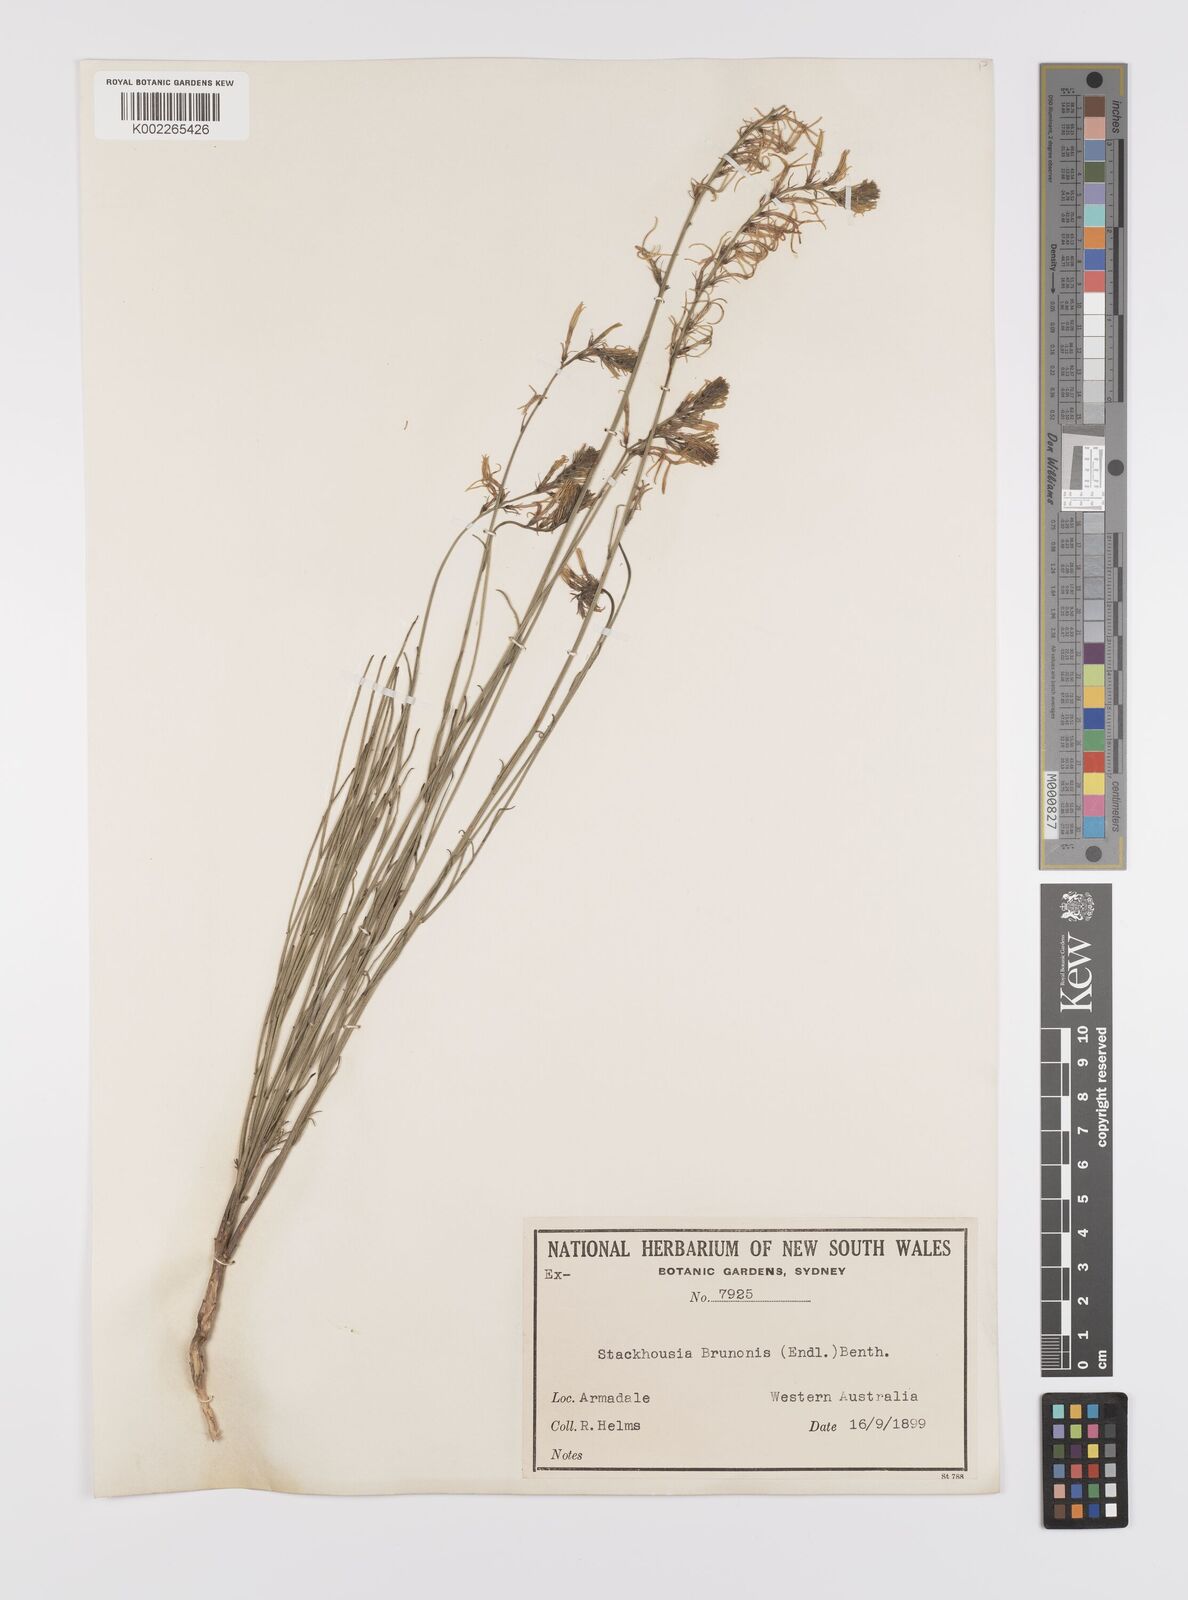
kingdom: Plantae
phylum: Tracheophyta
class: Magnoliopsida
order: Celastrales
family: Celastraceae
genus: Tripterococcus
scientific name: Tripterococcus brunonis
